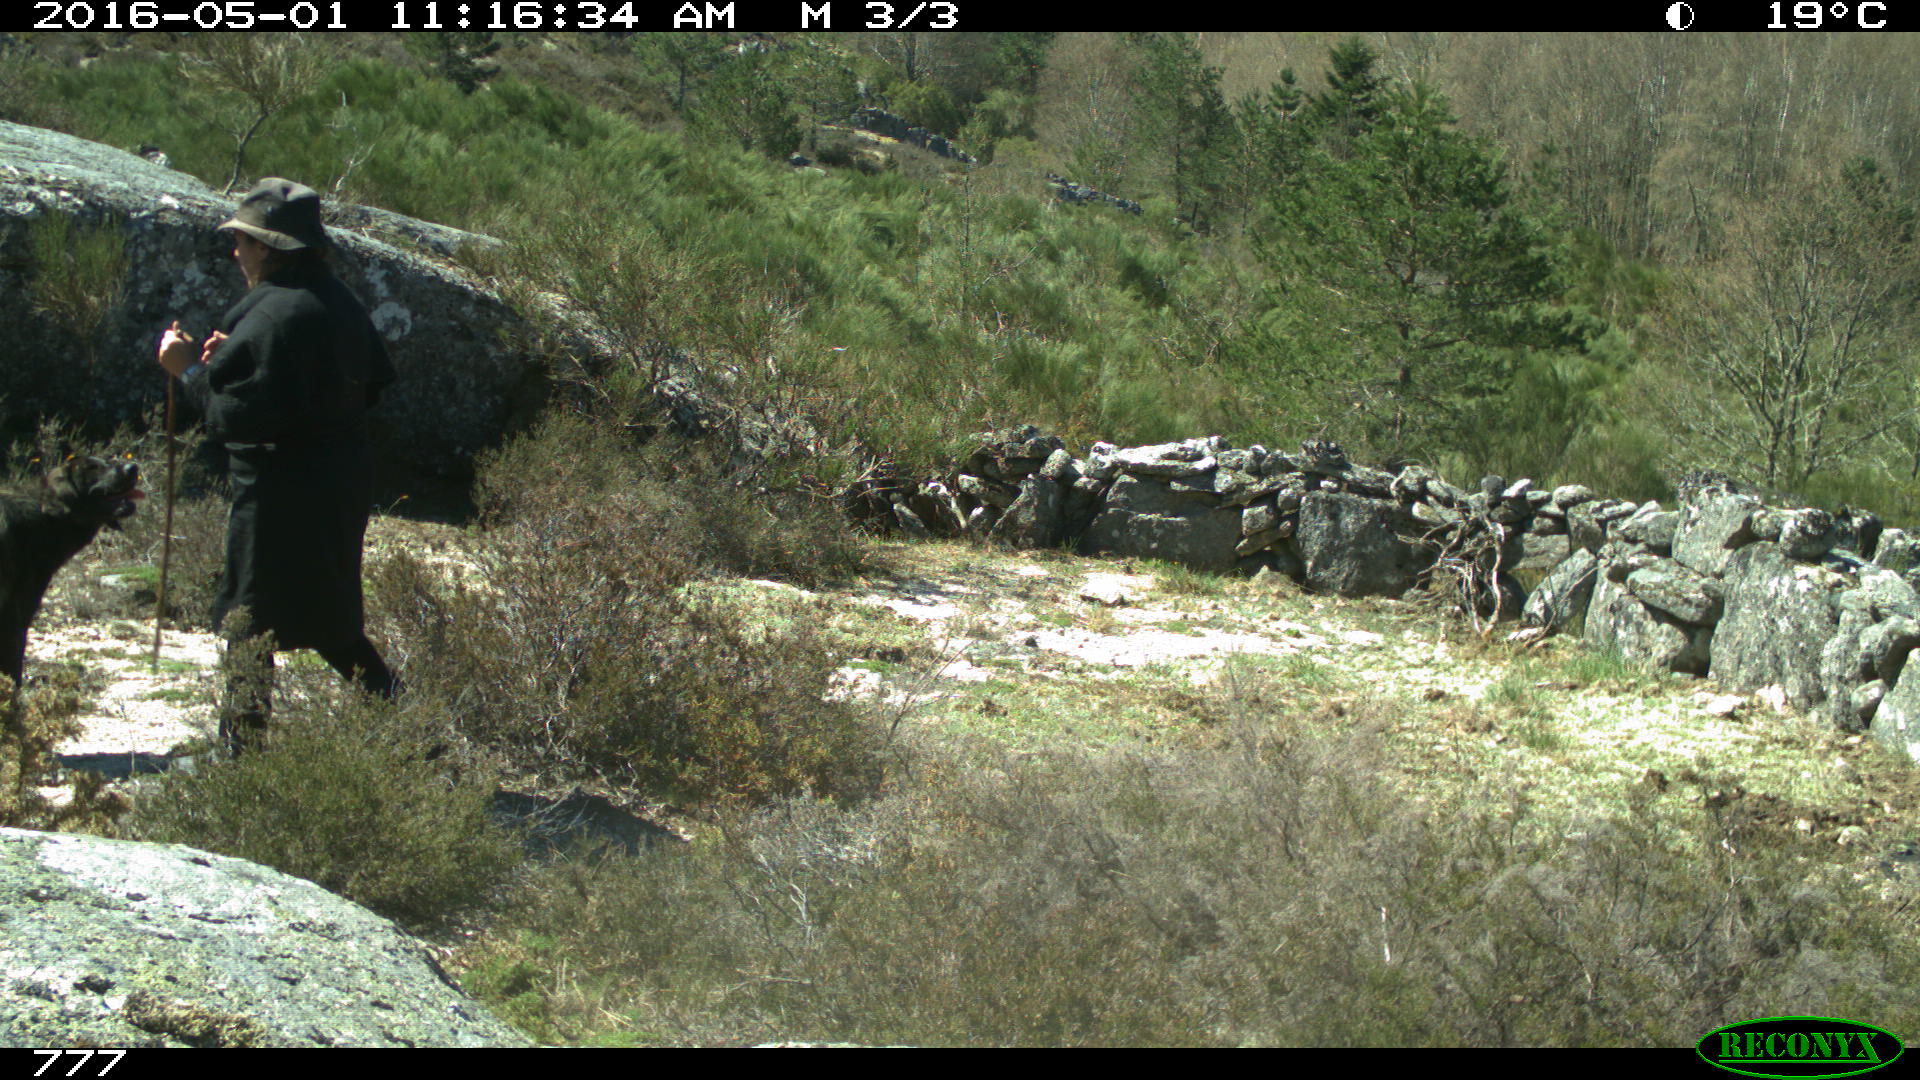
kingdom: Animalia
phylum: Chordata
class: Mammalia
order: Carnivora
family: Canidae
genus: Canis
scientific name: Canis lupus
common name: Gray wolf
